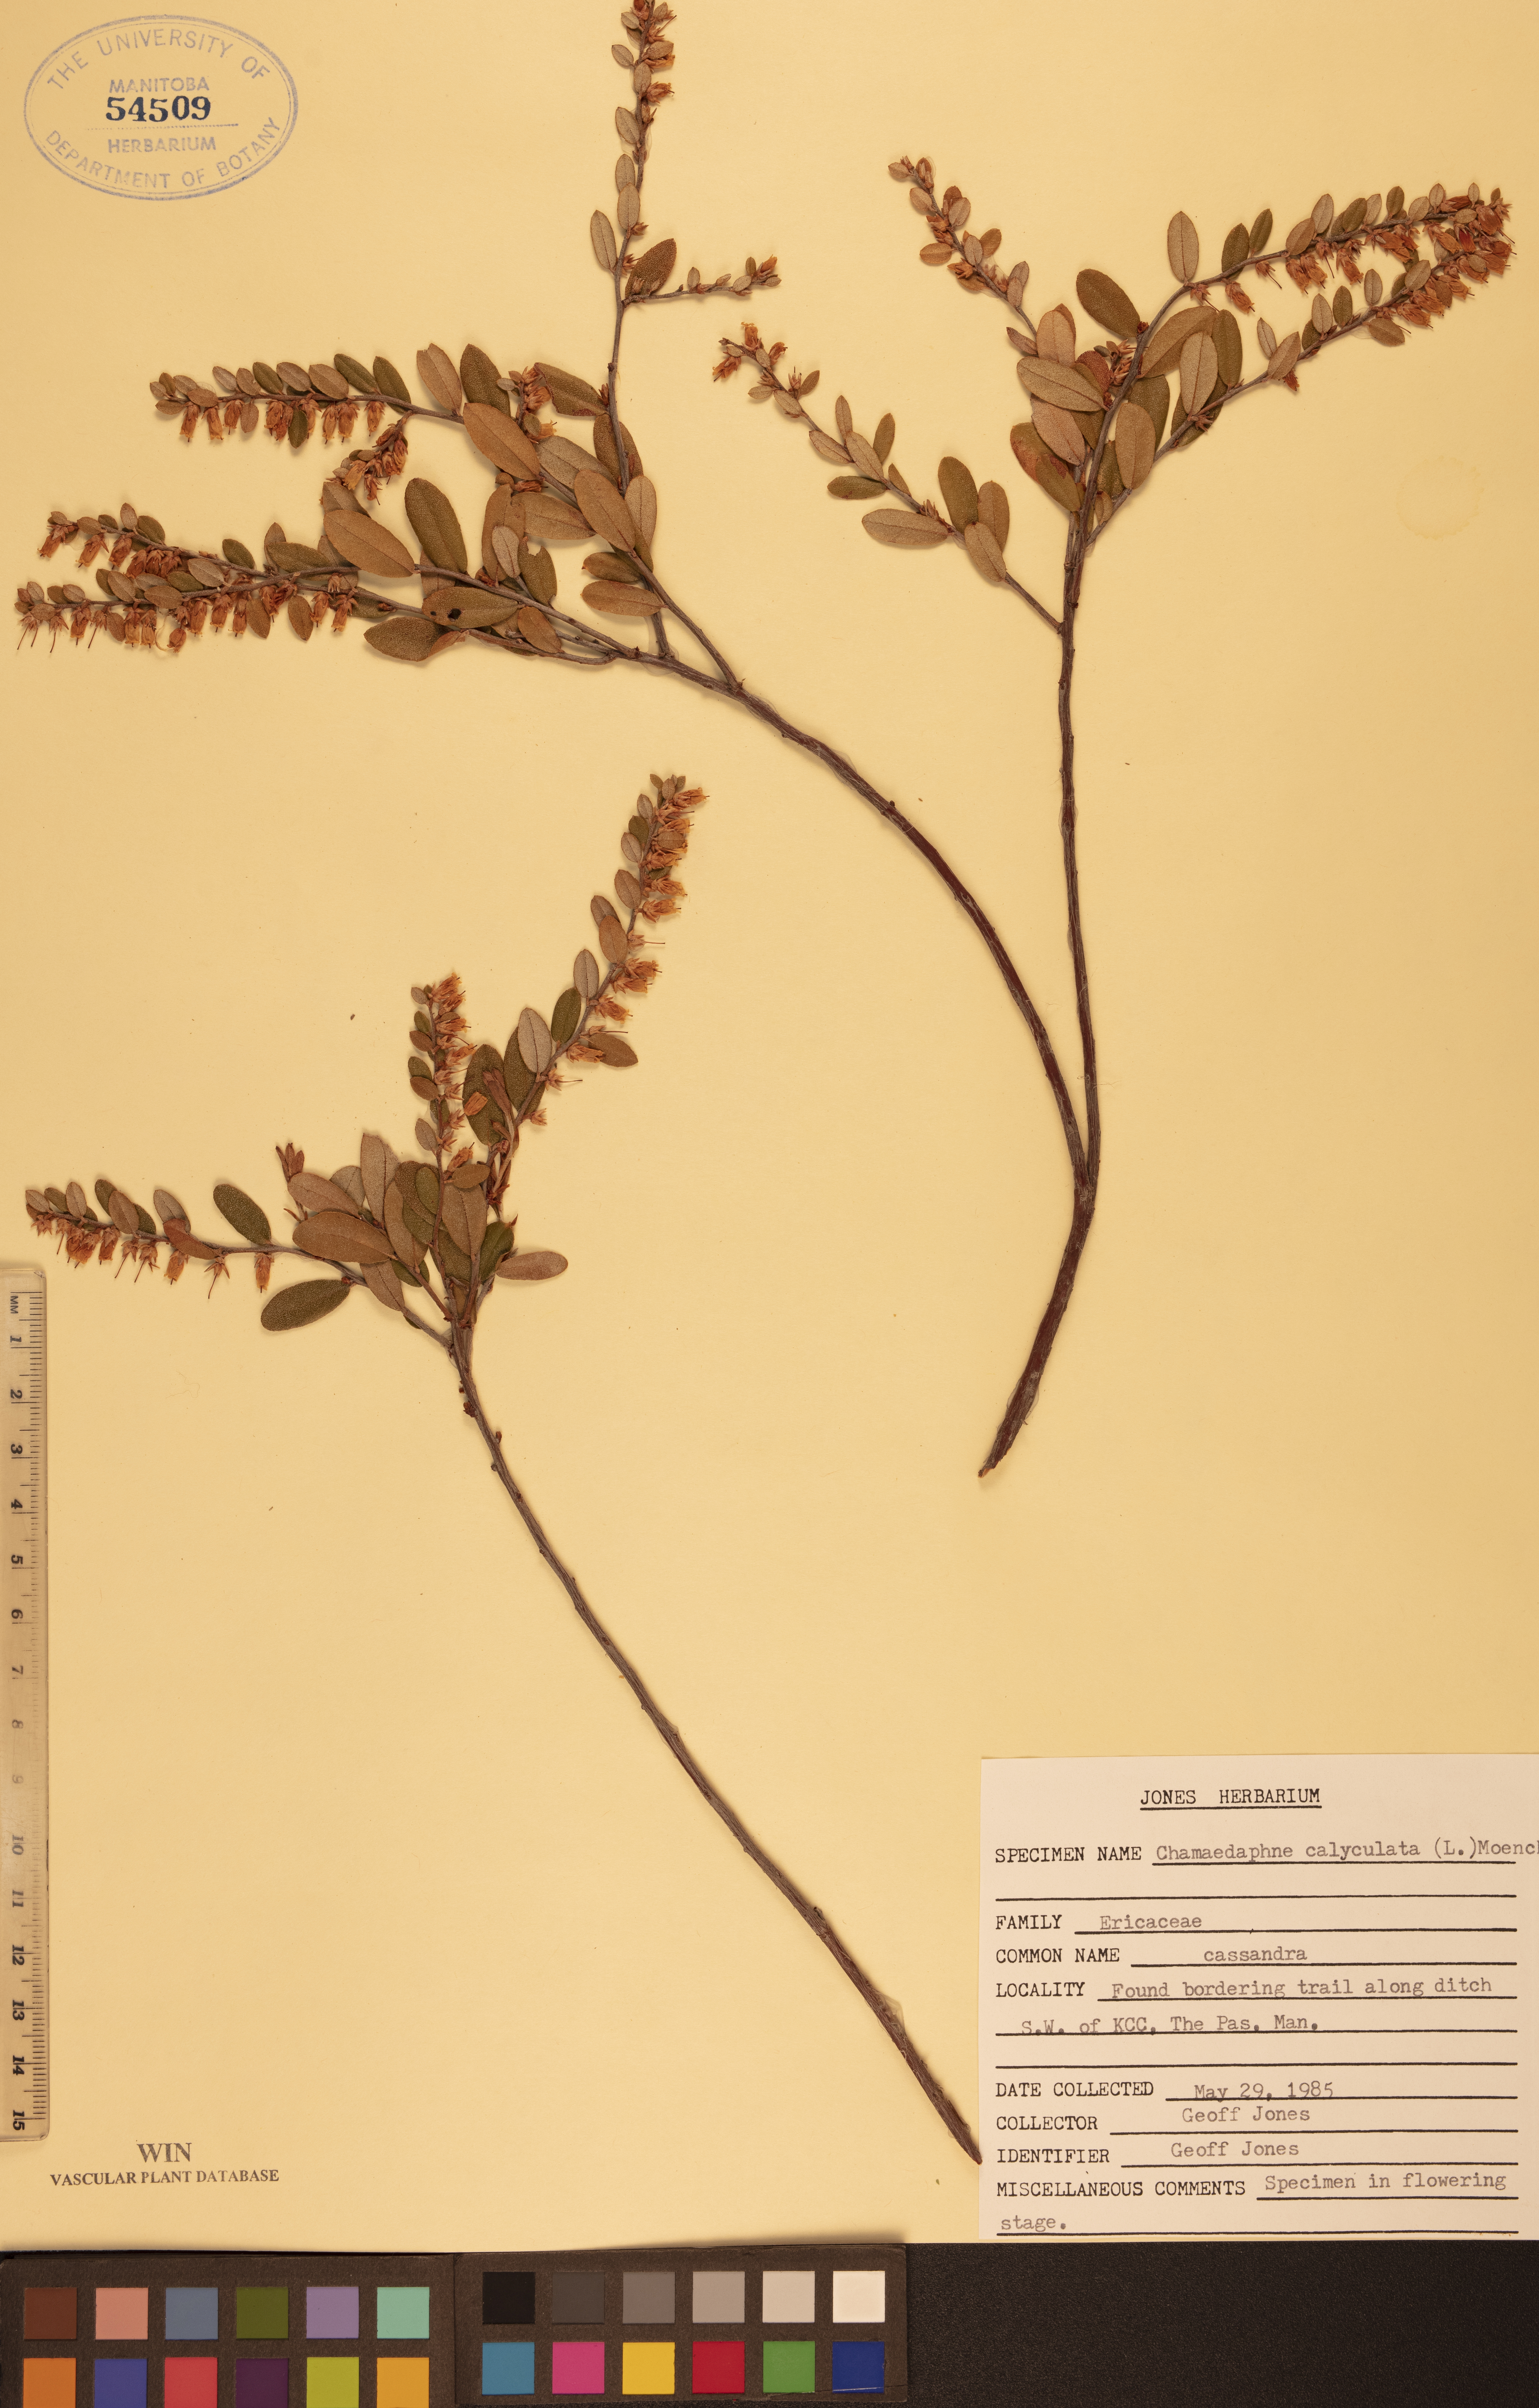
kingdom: Plantae
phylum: Tracheophyta
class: Magnoliopsida
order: Ericales
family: Ericaceae
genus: Chamaedaphne
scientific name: Chamaedaphne calyculata
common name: Leatherleaf
